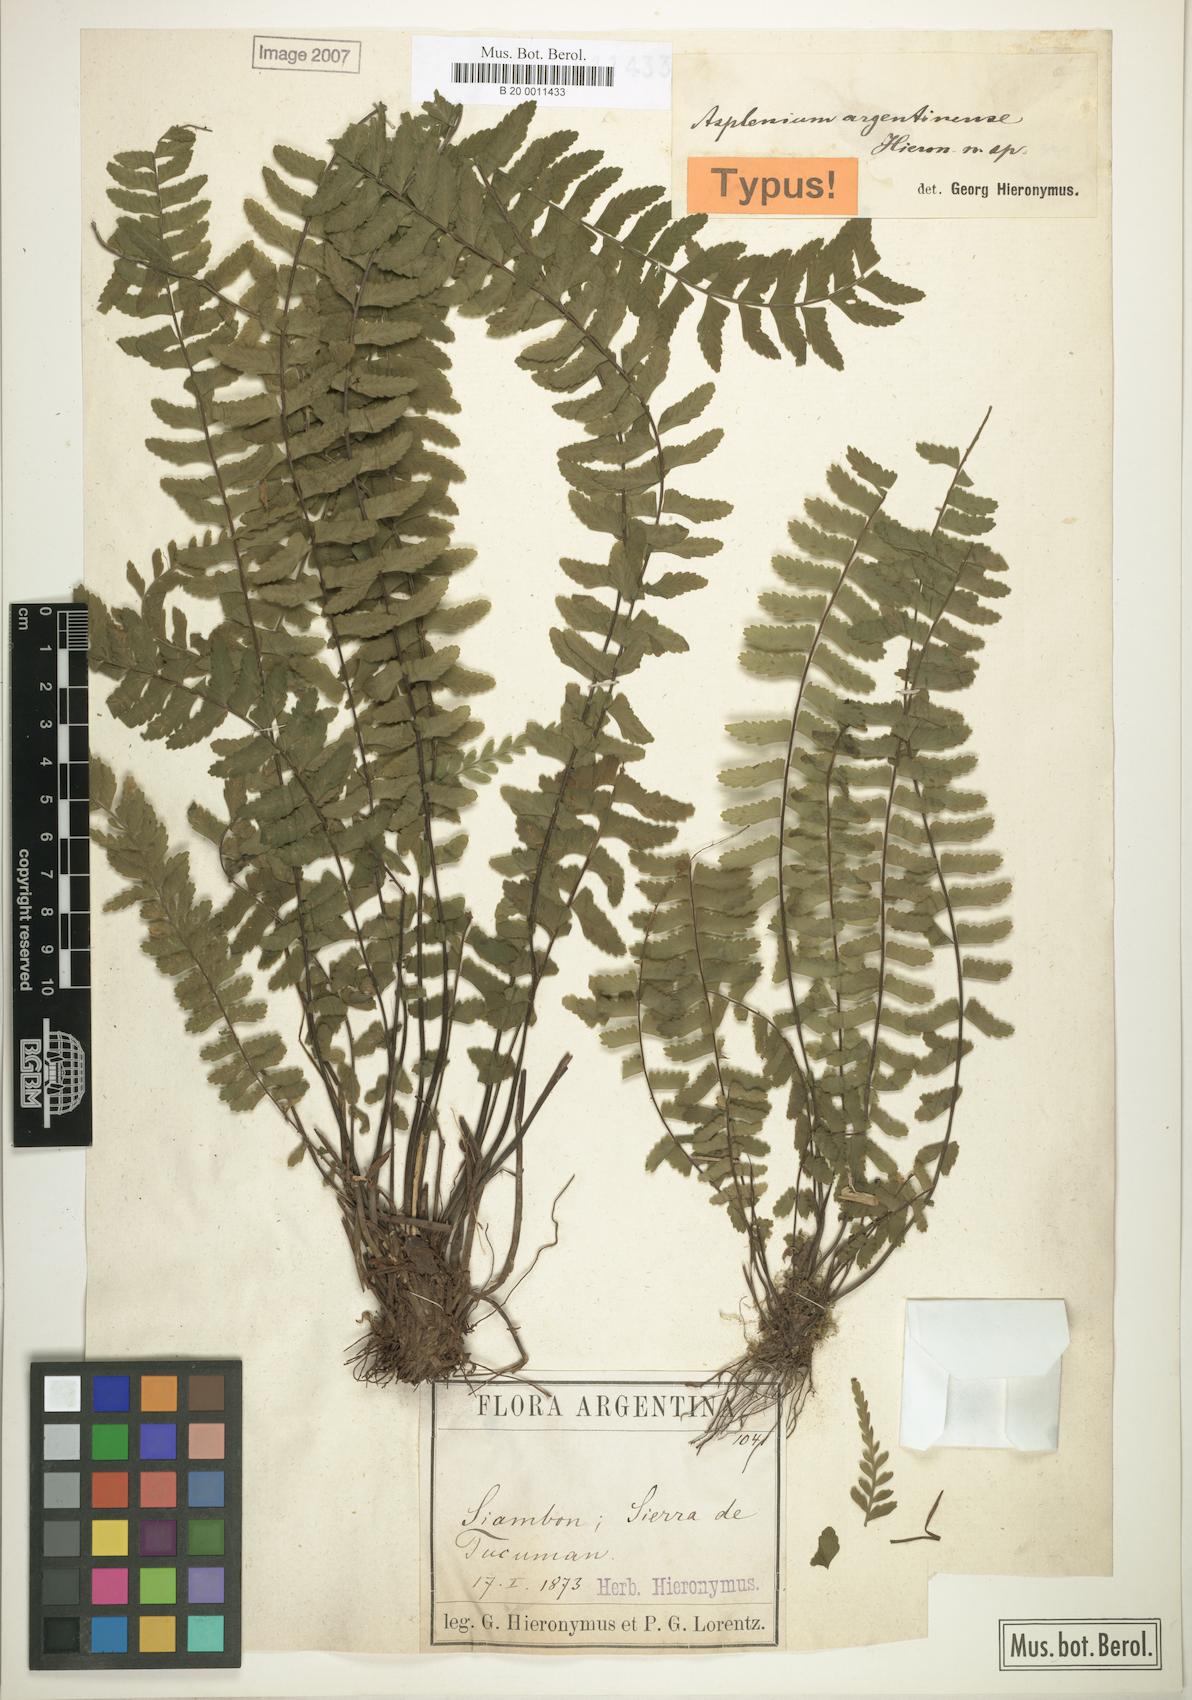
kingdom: Plantae
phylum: Tracheophyta
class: Polypodiopsida
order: Polypodiales
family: Aspleniaceae
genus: Asplenium
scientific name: Asplenium argentinum
